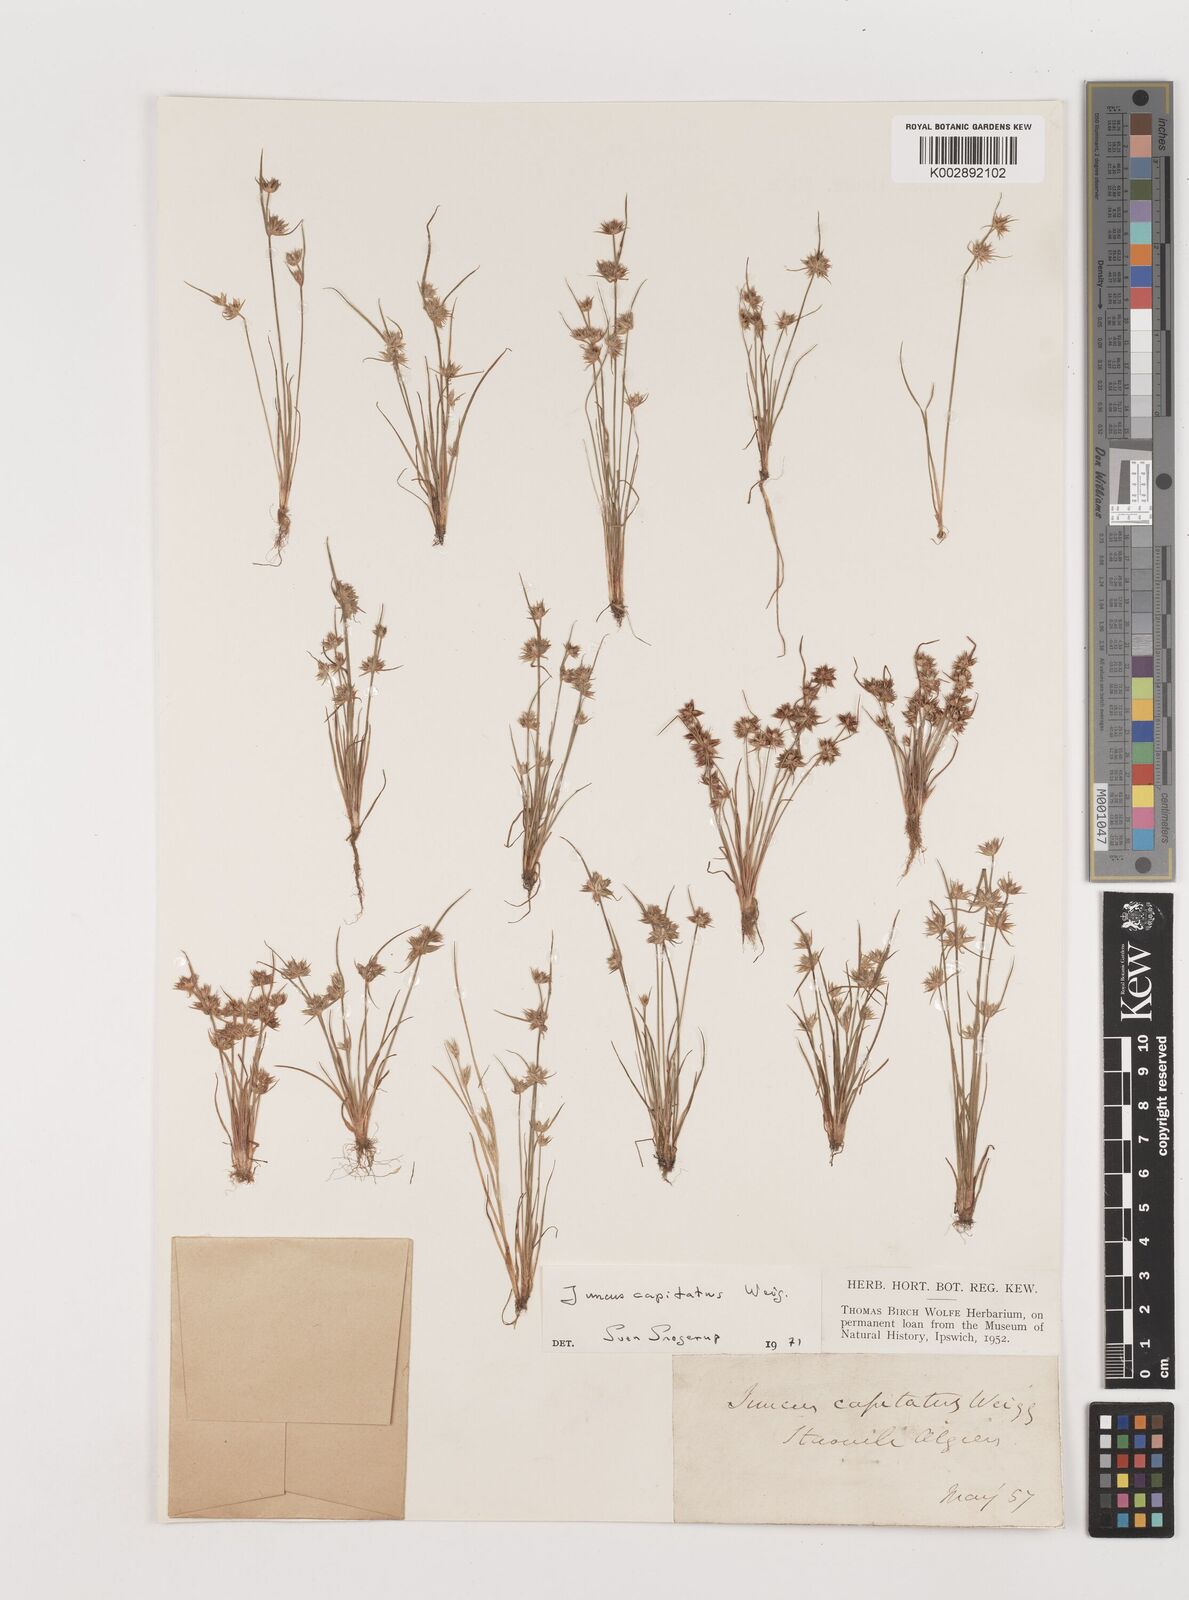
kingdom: Plantae
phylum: Tracheophyta
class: Liliopsida
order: Poales
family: Juncaceae
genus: Juncus
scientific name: Juncus capitatus
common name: Dwarf rush
